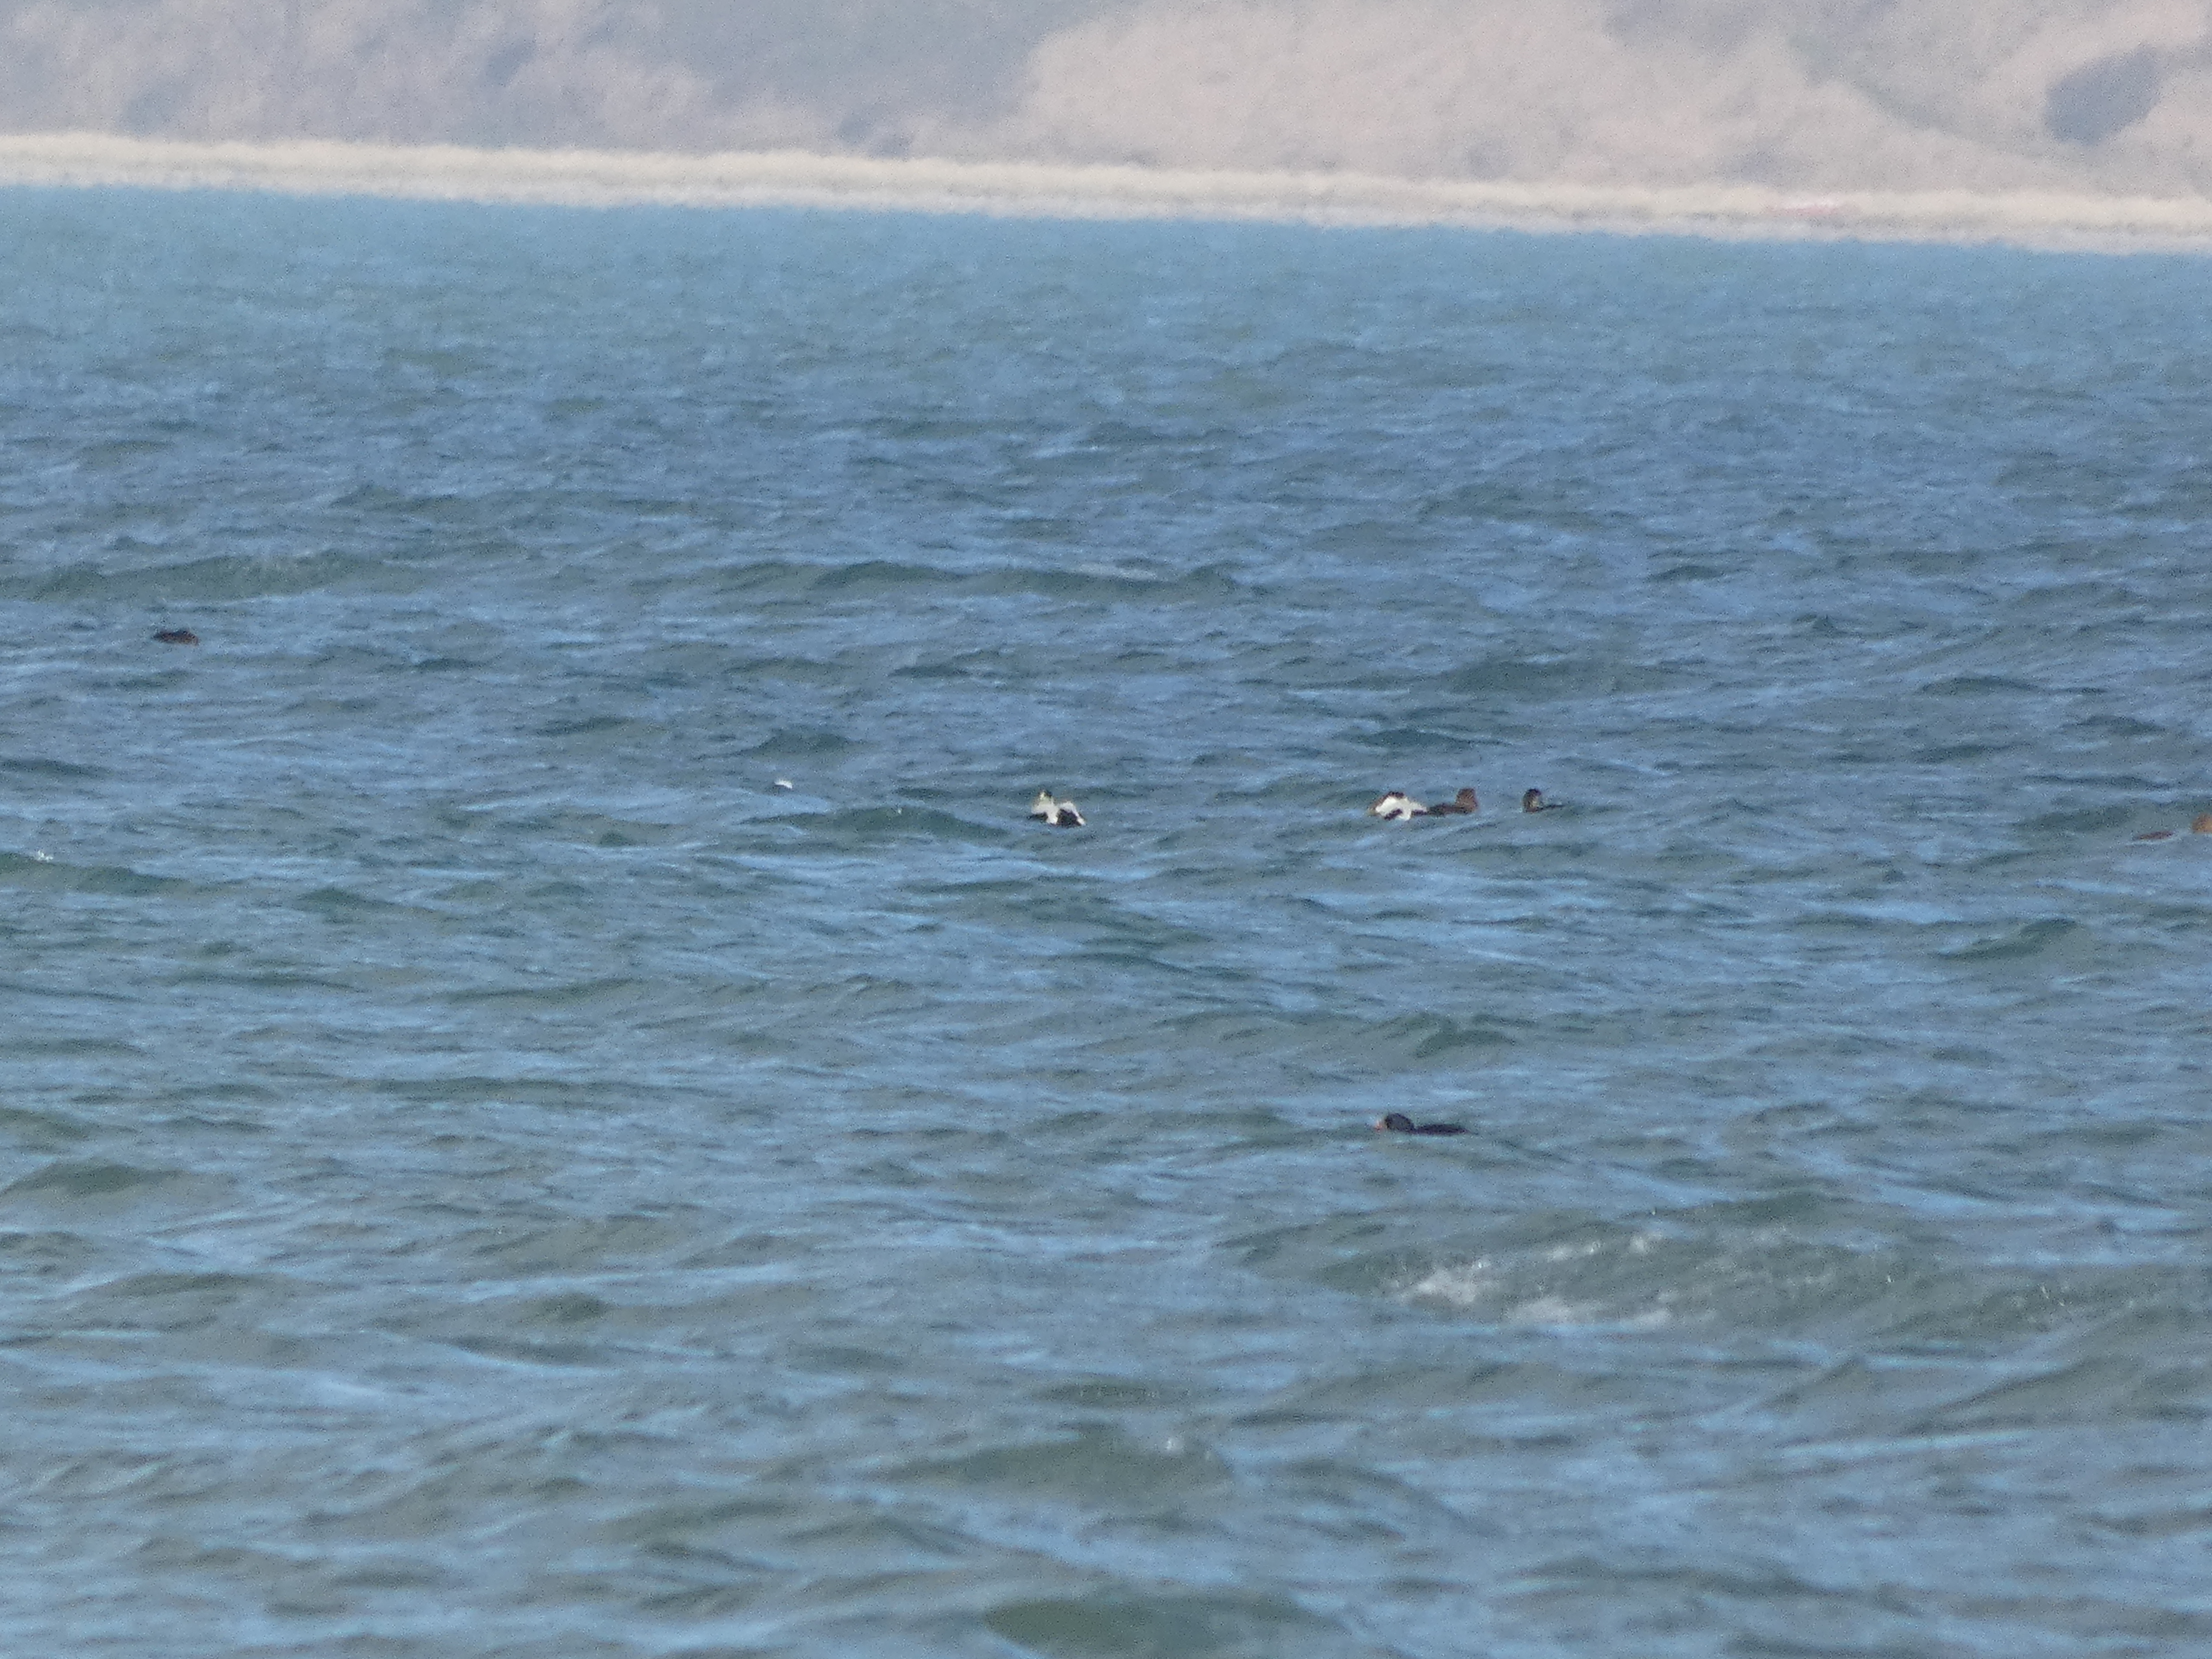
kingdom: Animalia
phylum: Chordata
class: Aves
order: Anseriformes
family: Anatidae
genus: Somateria
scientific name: Somateria mollissima
